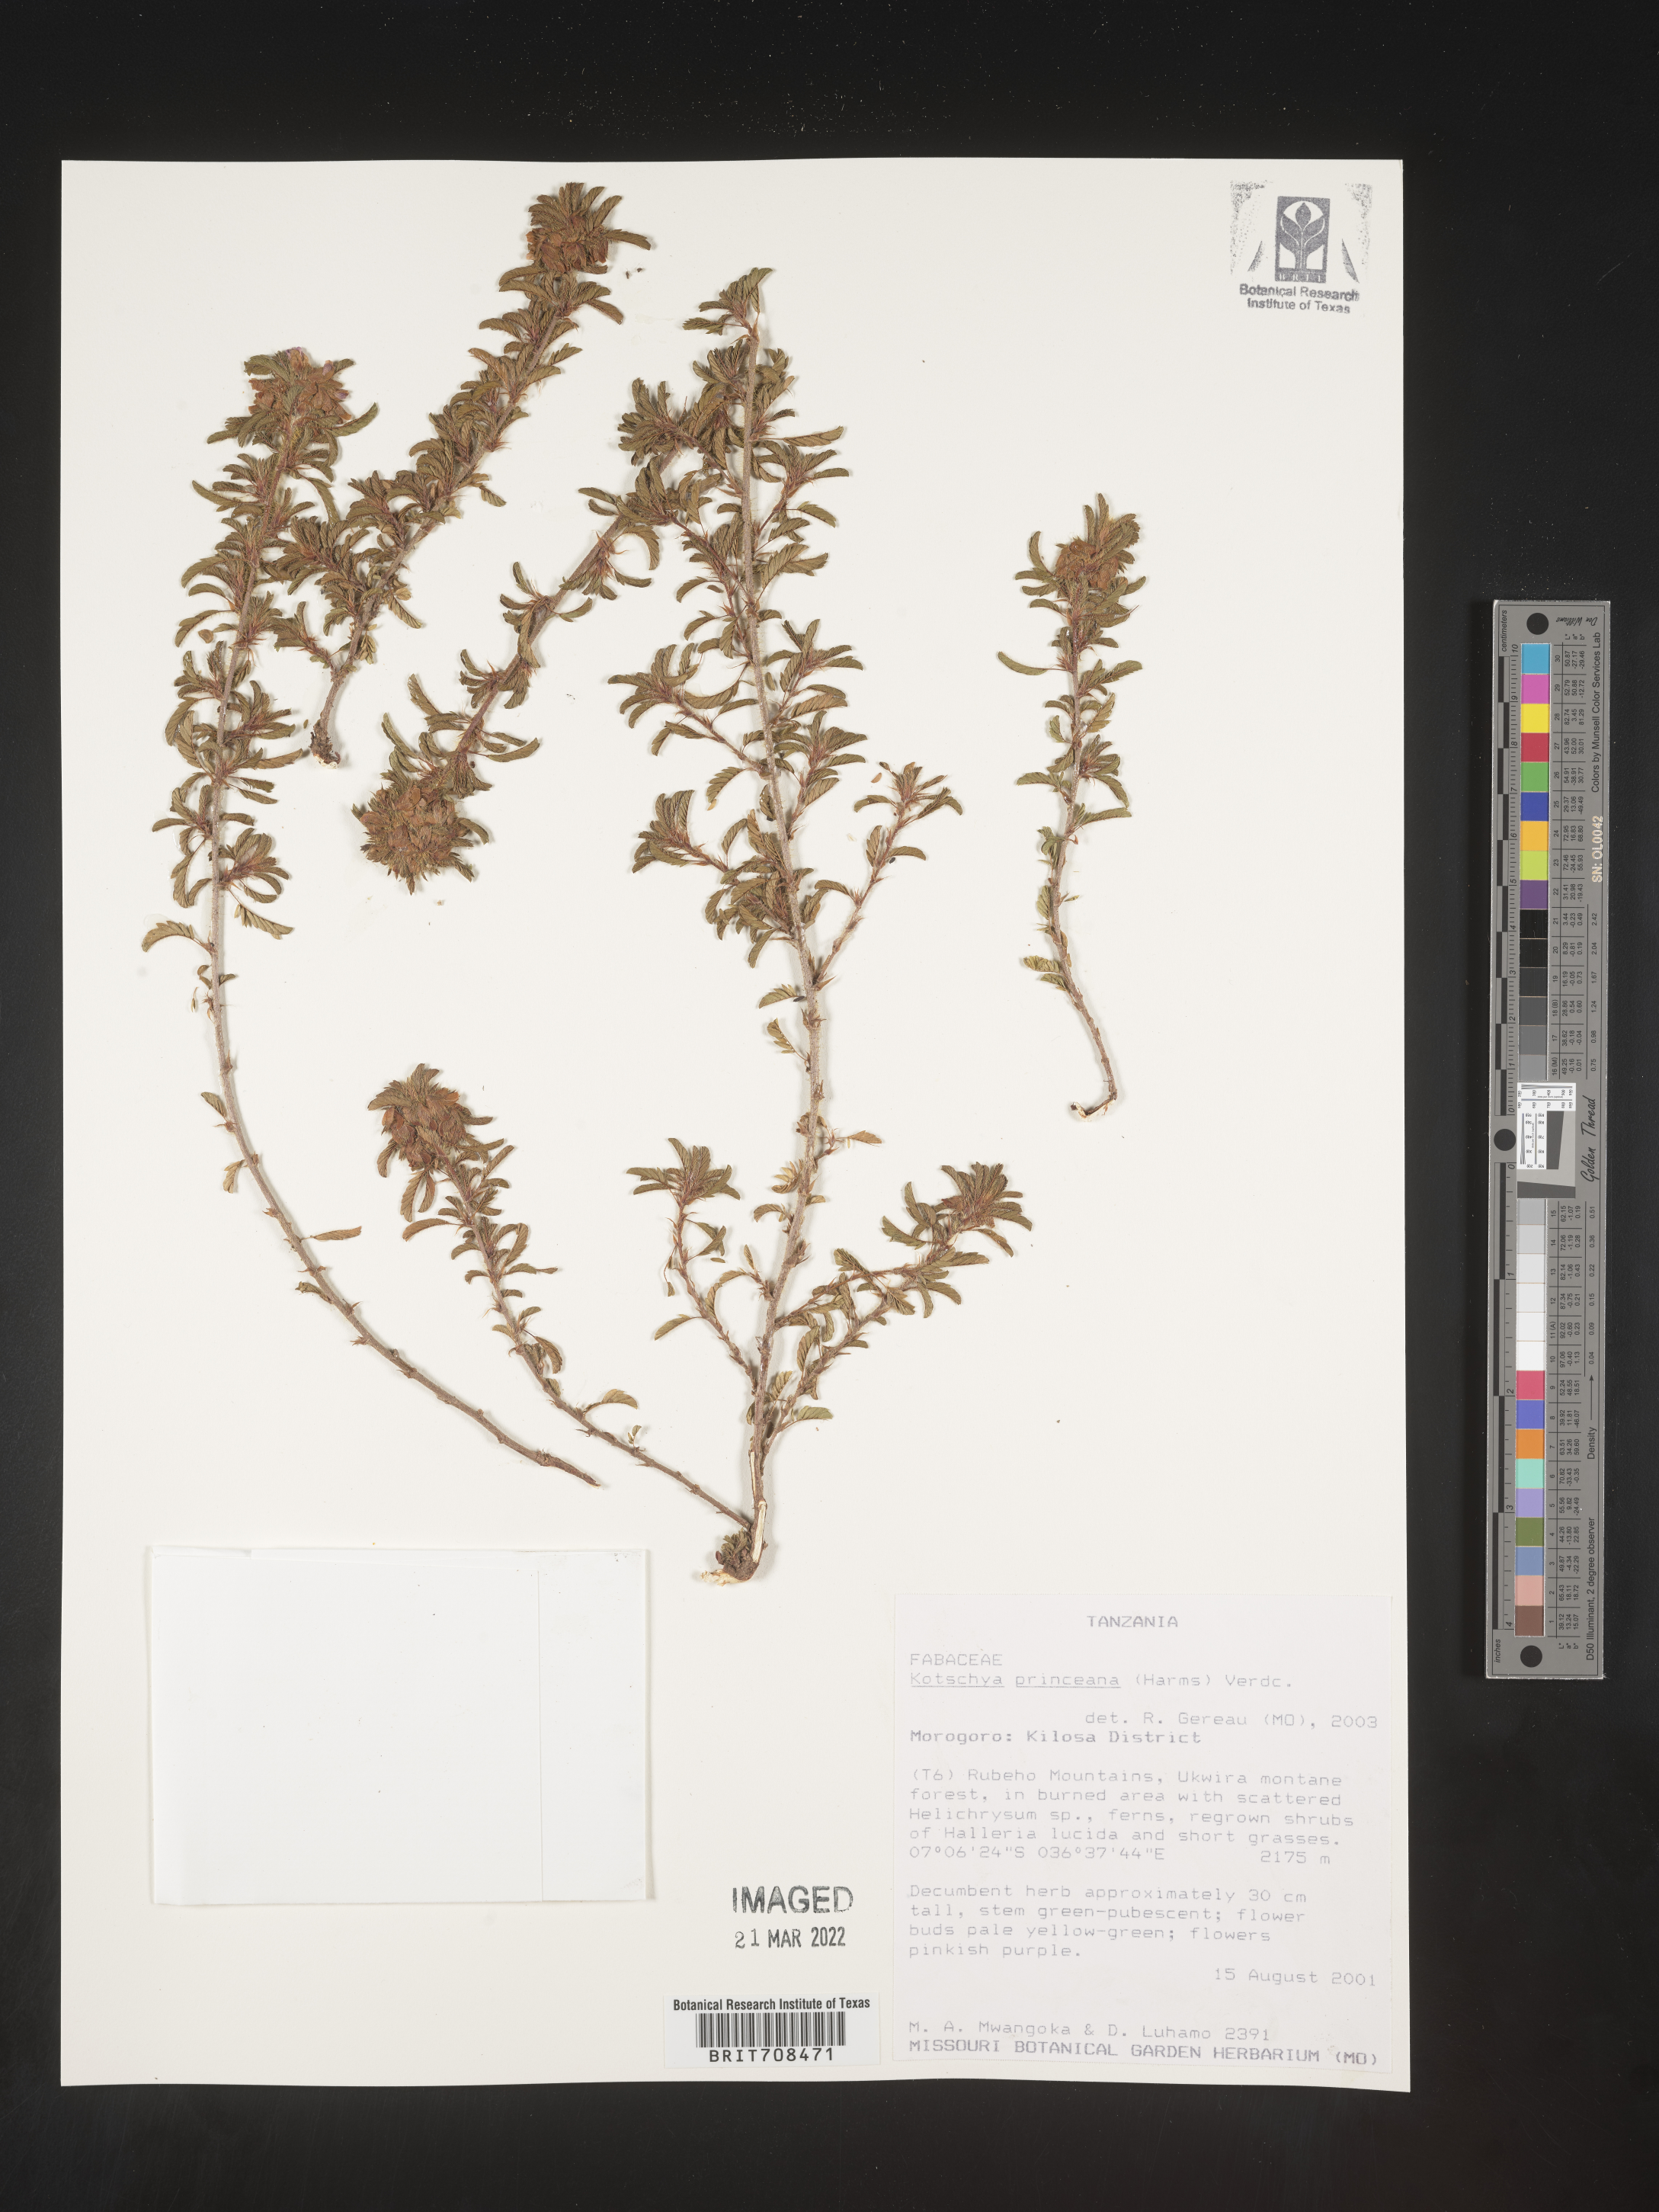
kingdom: Plantae
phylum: Tracheophyta
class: Magnoliopsida
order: Fabales
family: Fabaceae
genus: Kotschya
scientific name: Kotschya
